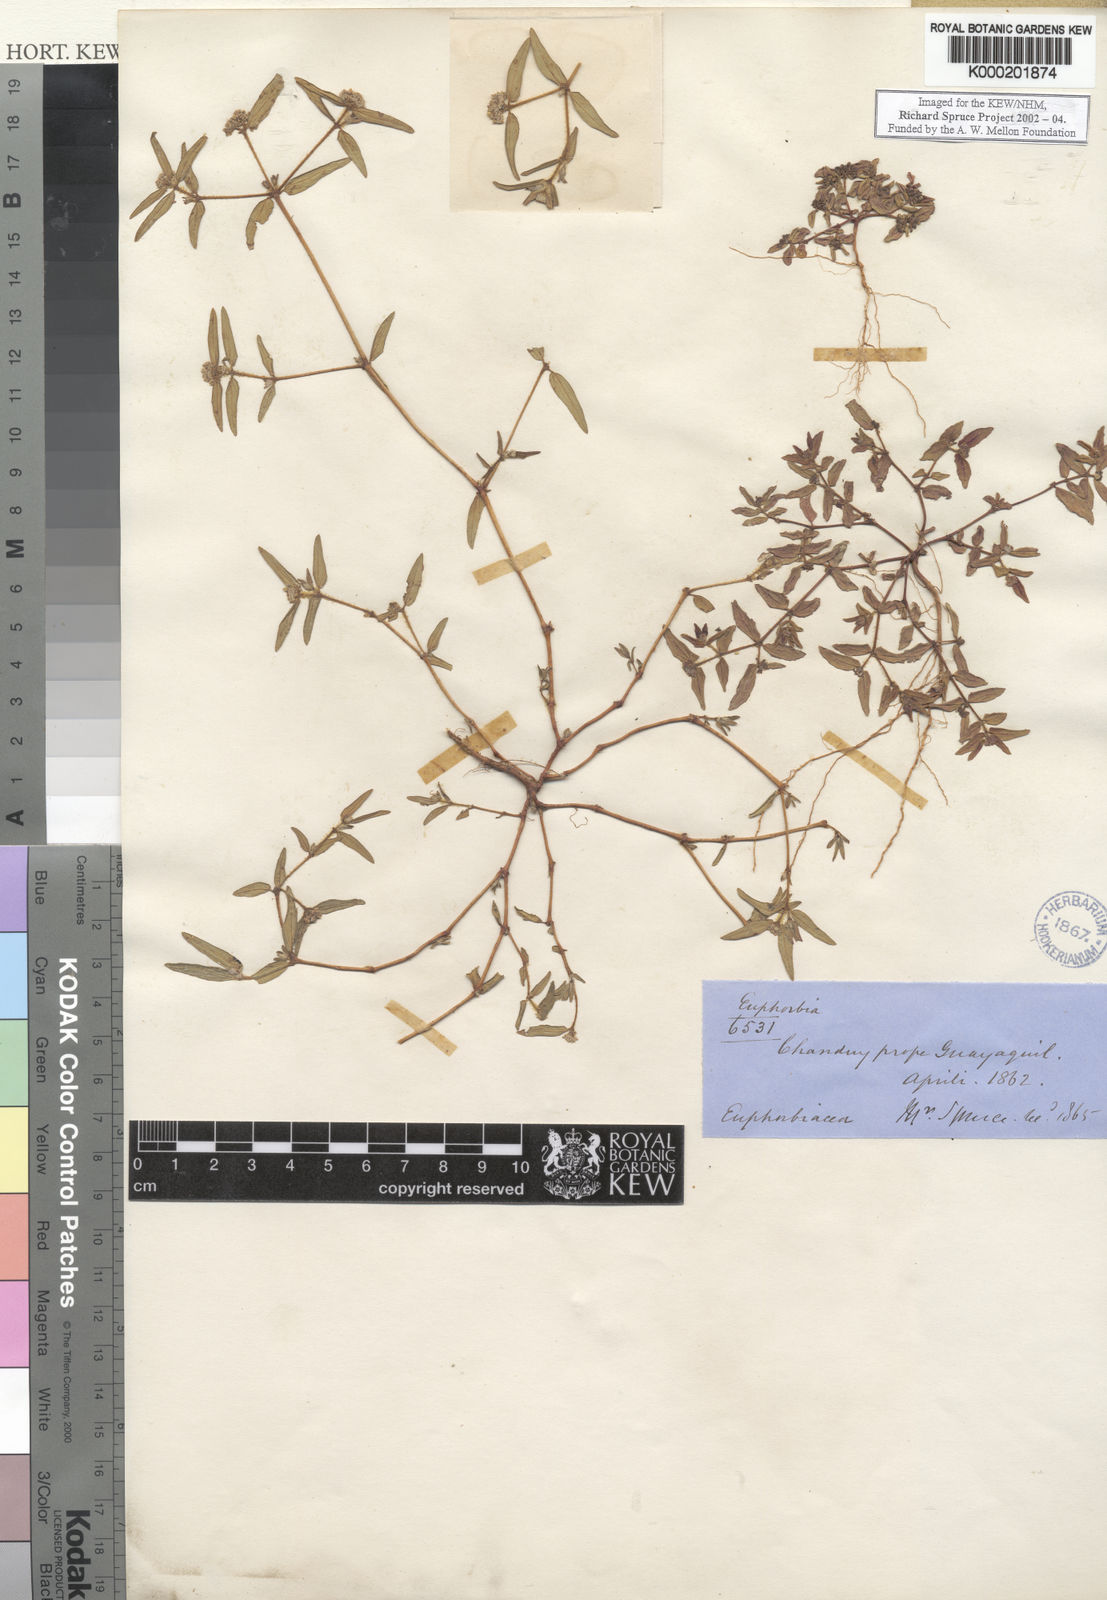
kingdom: Plantae
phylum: Tracheophyta
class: Magnoliopsida
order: Malpighiales
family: Euphorbiaceae
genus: Euphorbia
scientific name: Euphorbia
